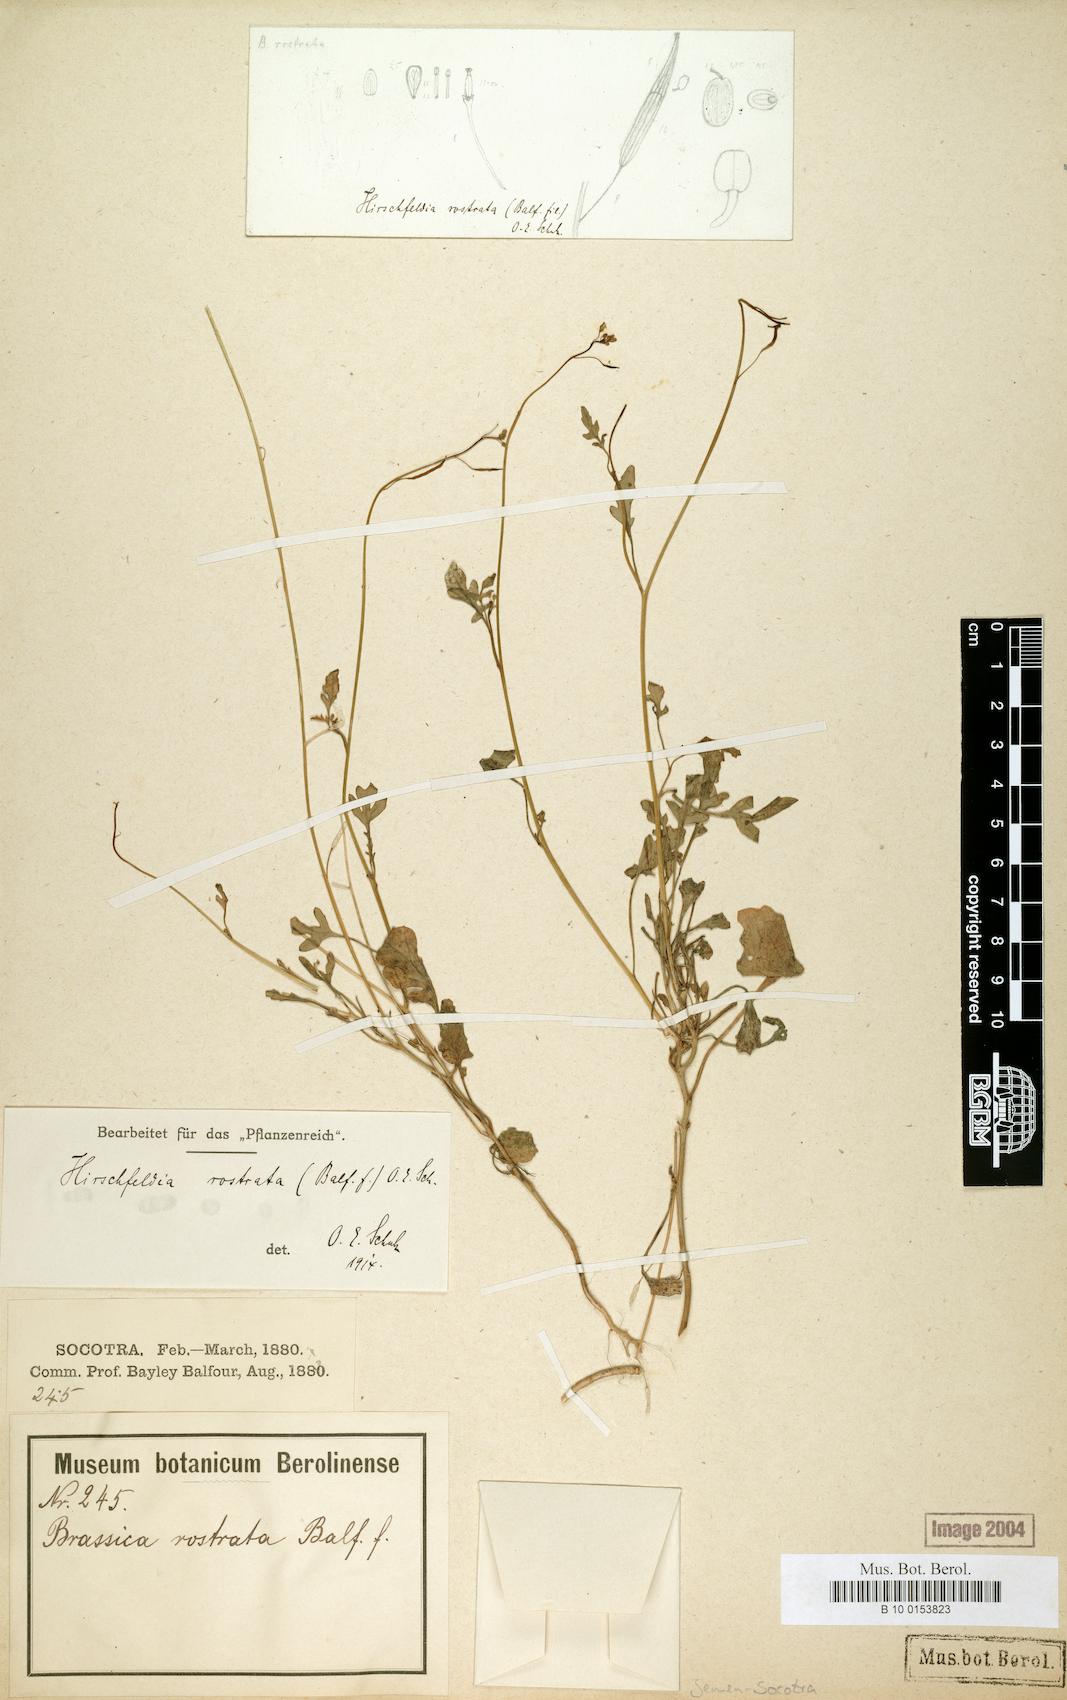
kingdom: Plantae
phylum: Tracheophyta
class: Magnoliopsida
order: Brassicales
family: Brassicaceae
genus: Erucastrum
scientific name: Erucastrum rostratum
